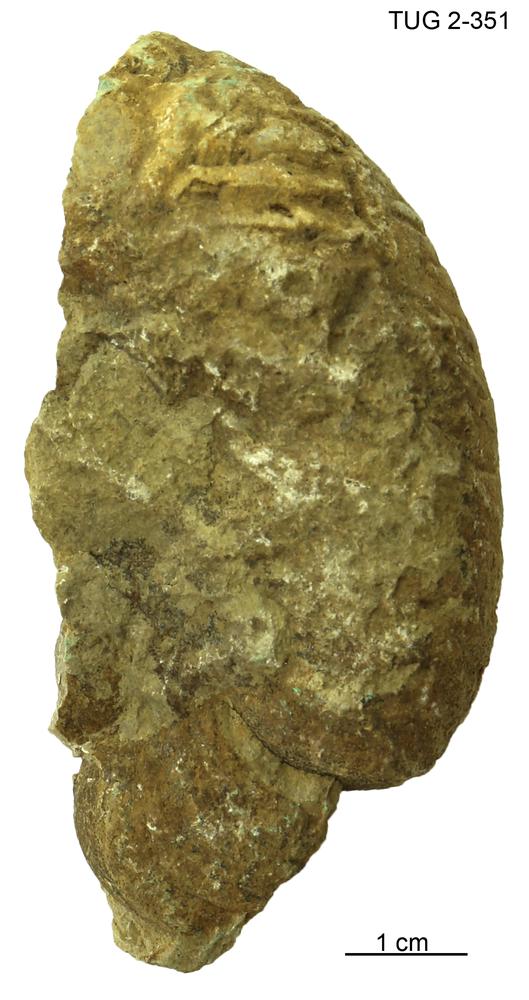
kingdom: Animalia
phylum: Mollusca
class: Cephalopoda
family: Trocholitidae
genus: Schroederoceras
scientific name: Schroederoceras
